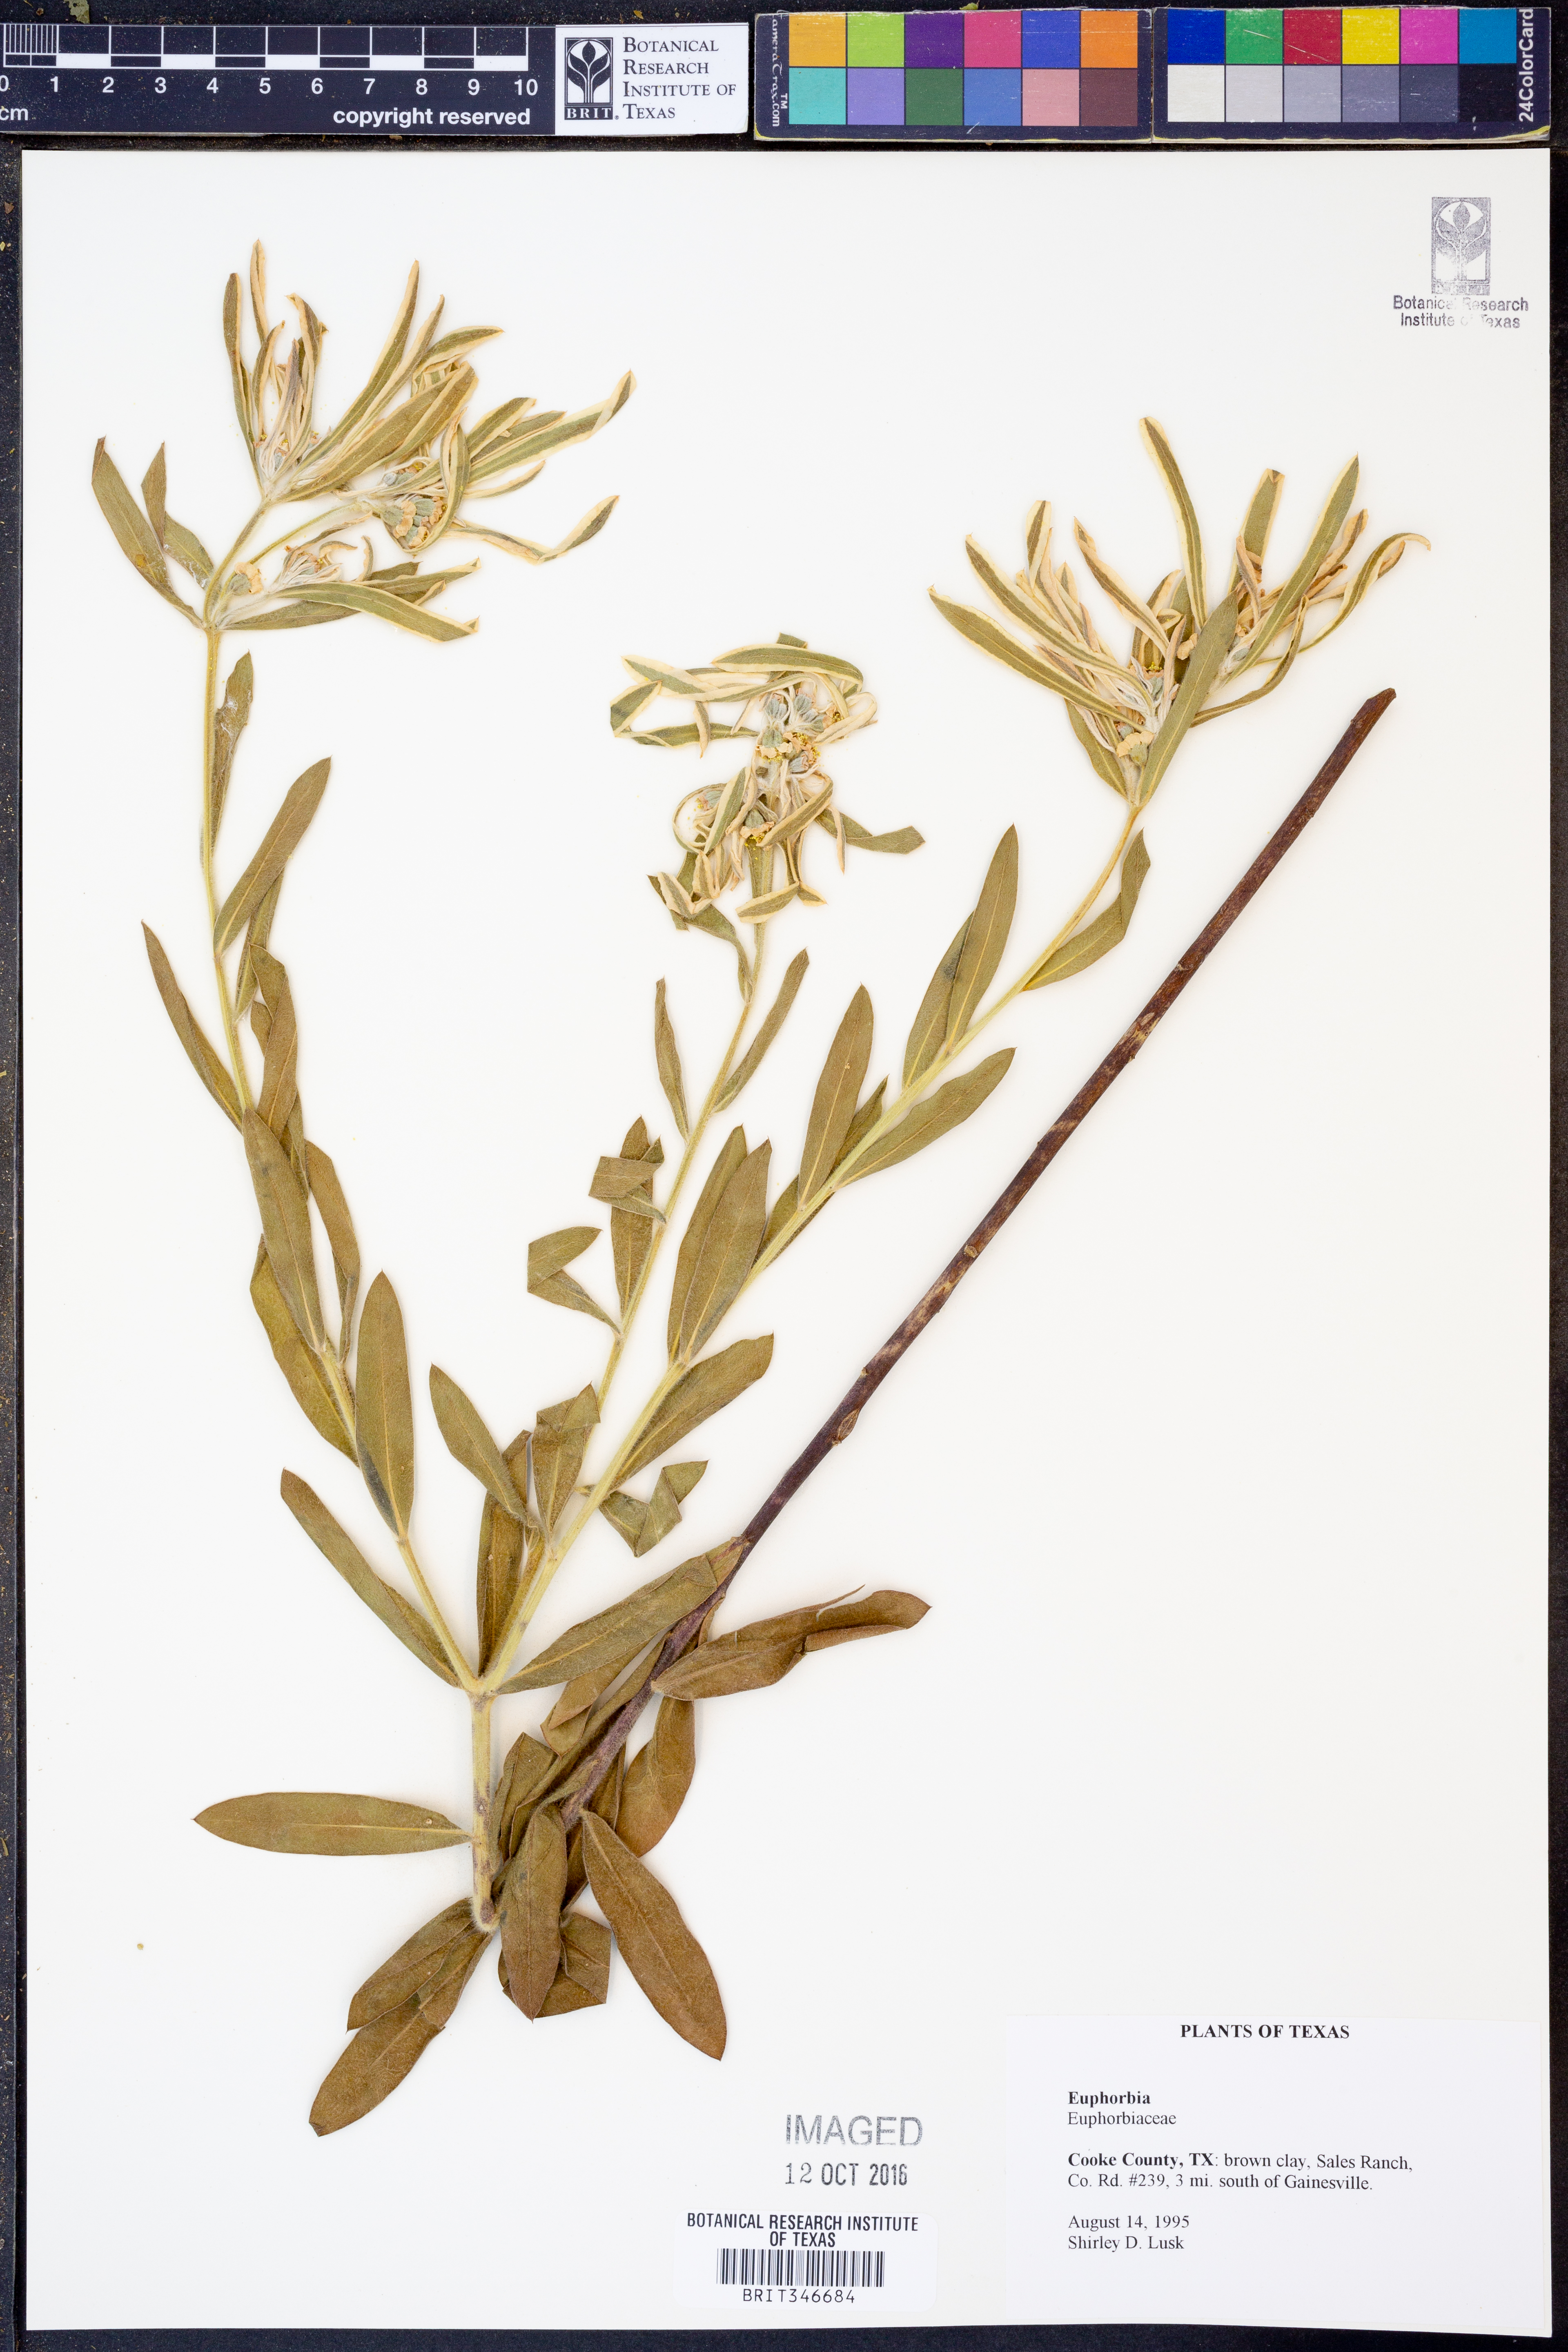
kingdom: Plantae
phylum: Tracheophyta
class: Magnoliopsida
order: Malpighiales
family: Euphorbiaceae
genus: Euphorbia
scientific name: Euphorbia bicolor
